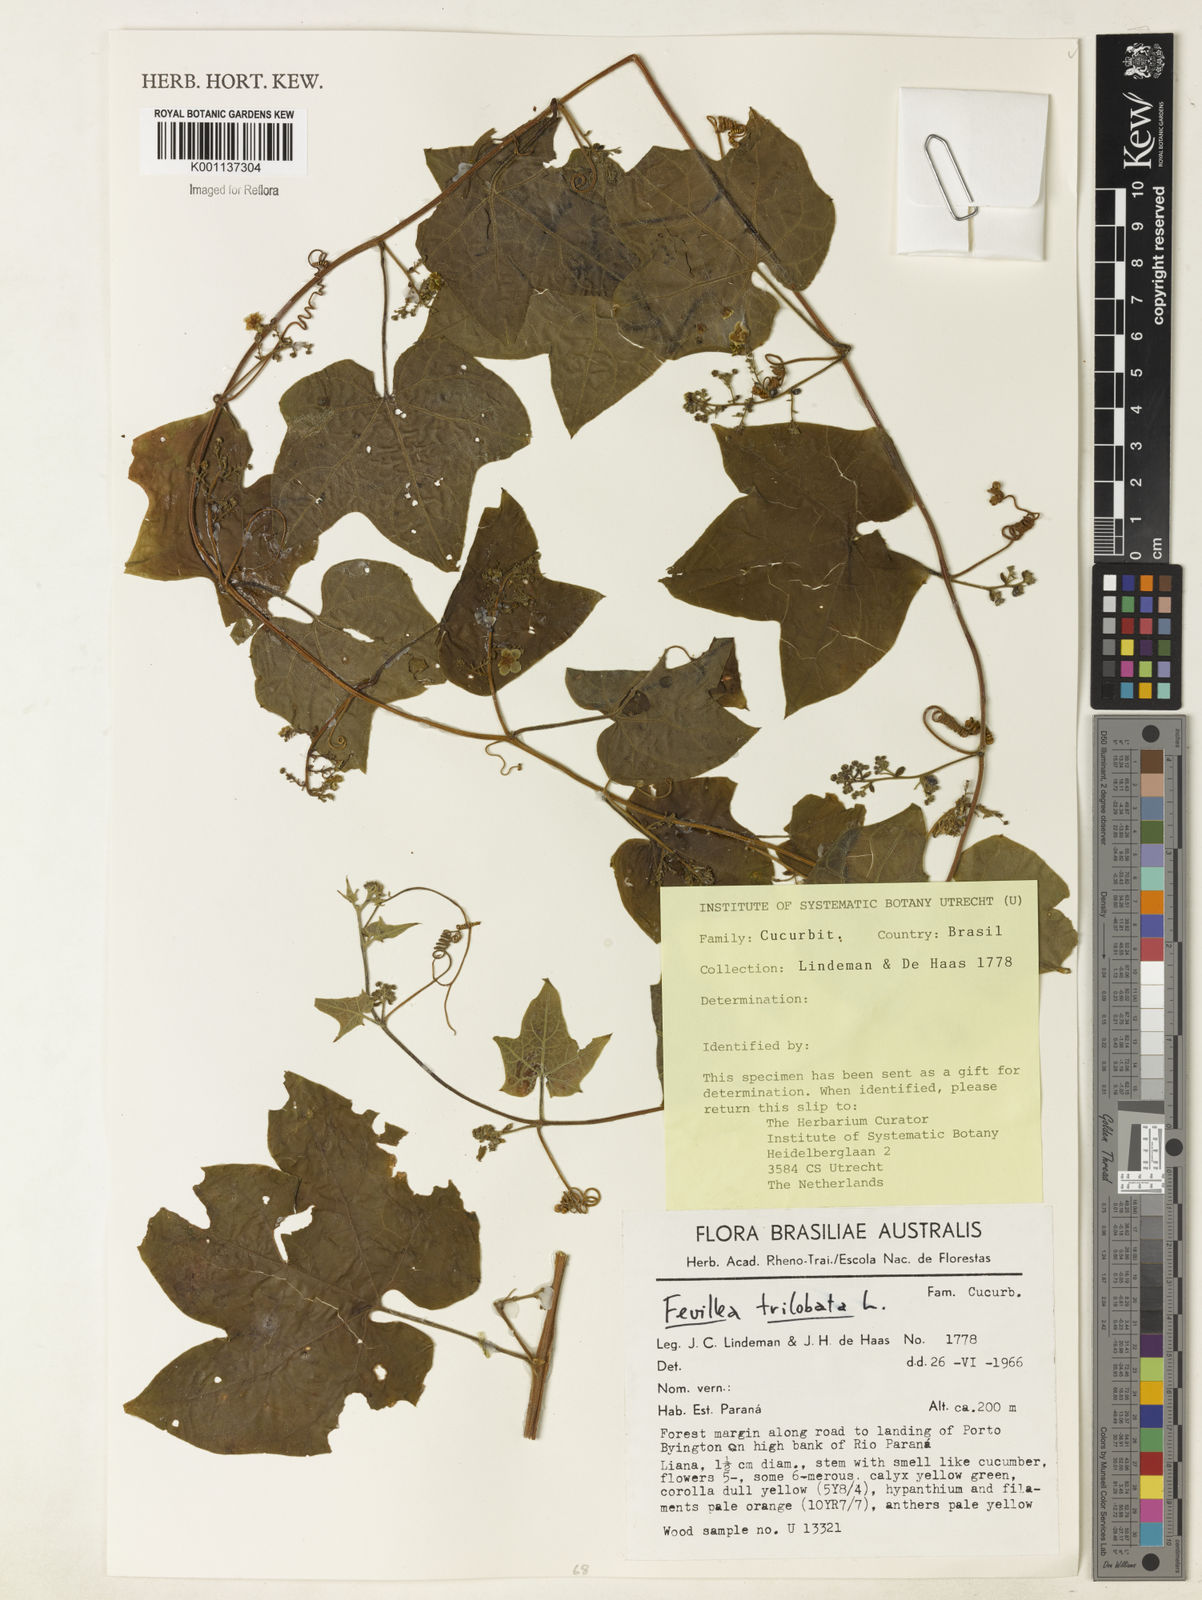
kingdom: Plantae
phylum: Tracheophyta
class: Magnoliopsida
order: Cucurbitales
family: Cucurbitaceae
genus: Fevillea
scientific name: Fevillea trilobata
